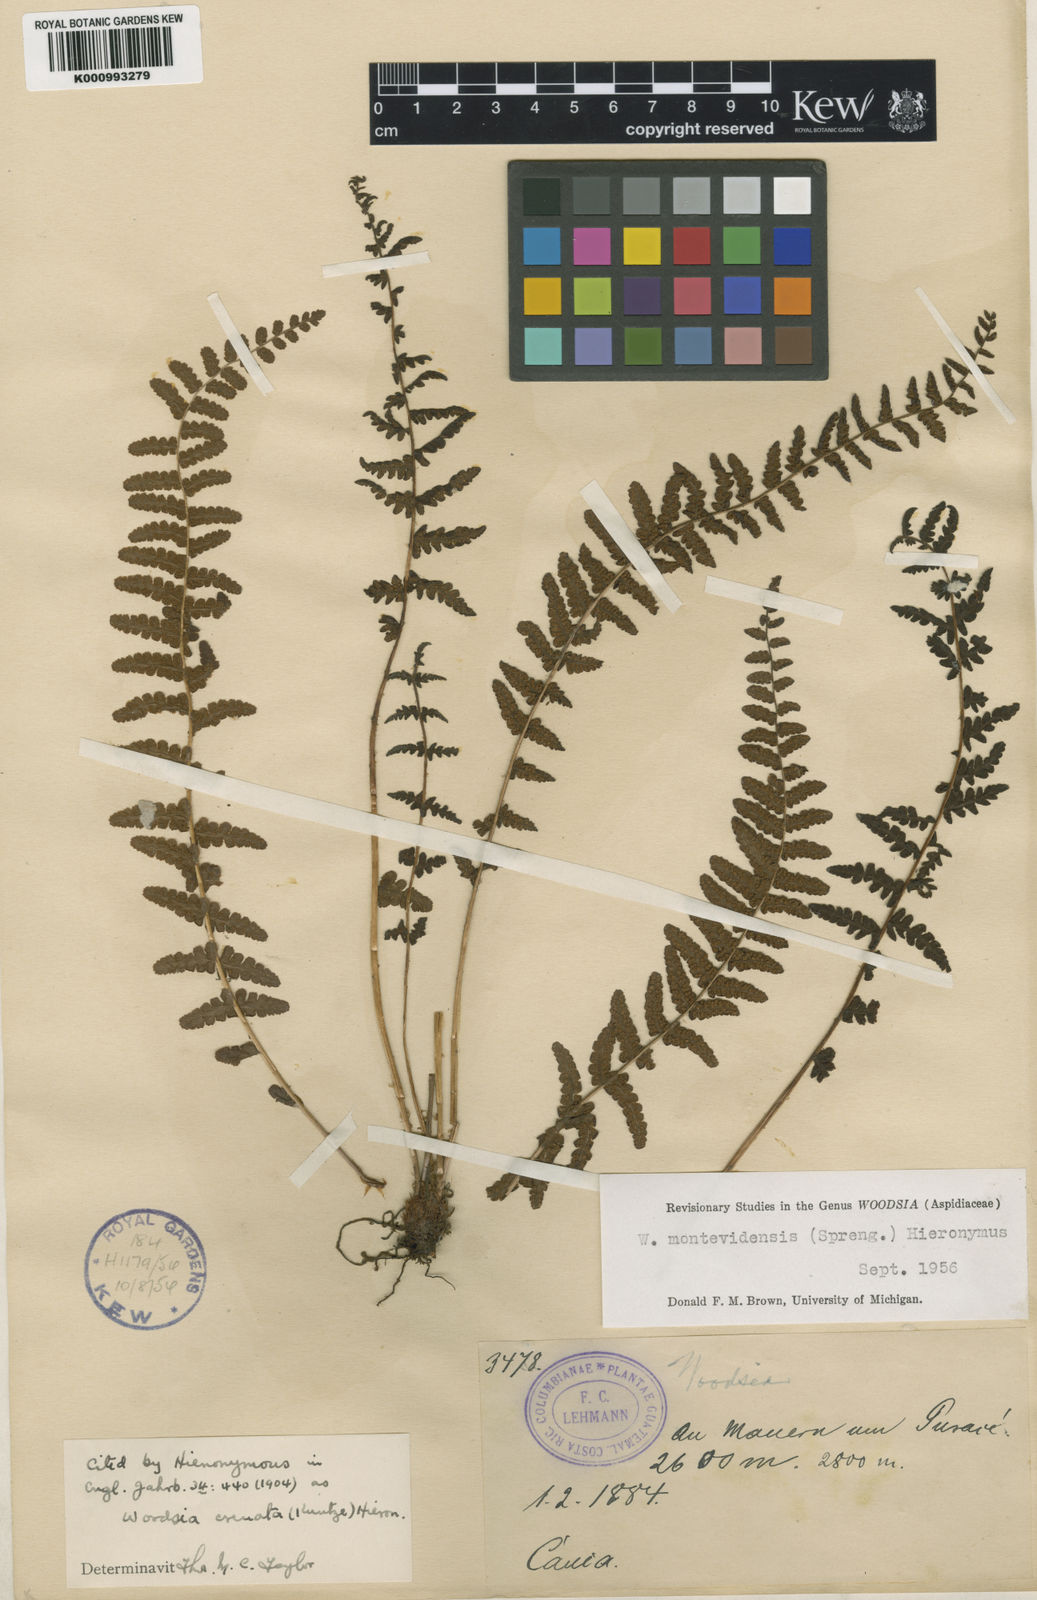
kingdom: Plantae
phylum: Tracheophyta
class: Polypodiopsida
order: Polypodiales
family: Woodsiaceae
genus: Physematium
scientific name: Physematium montevidense
